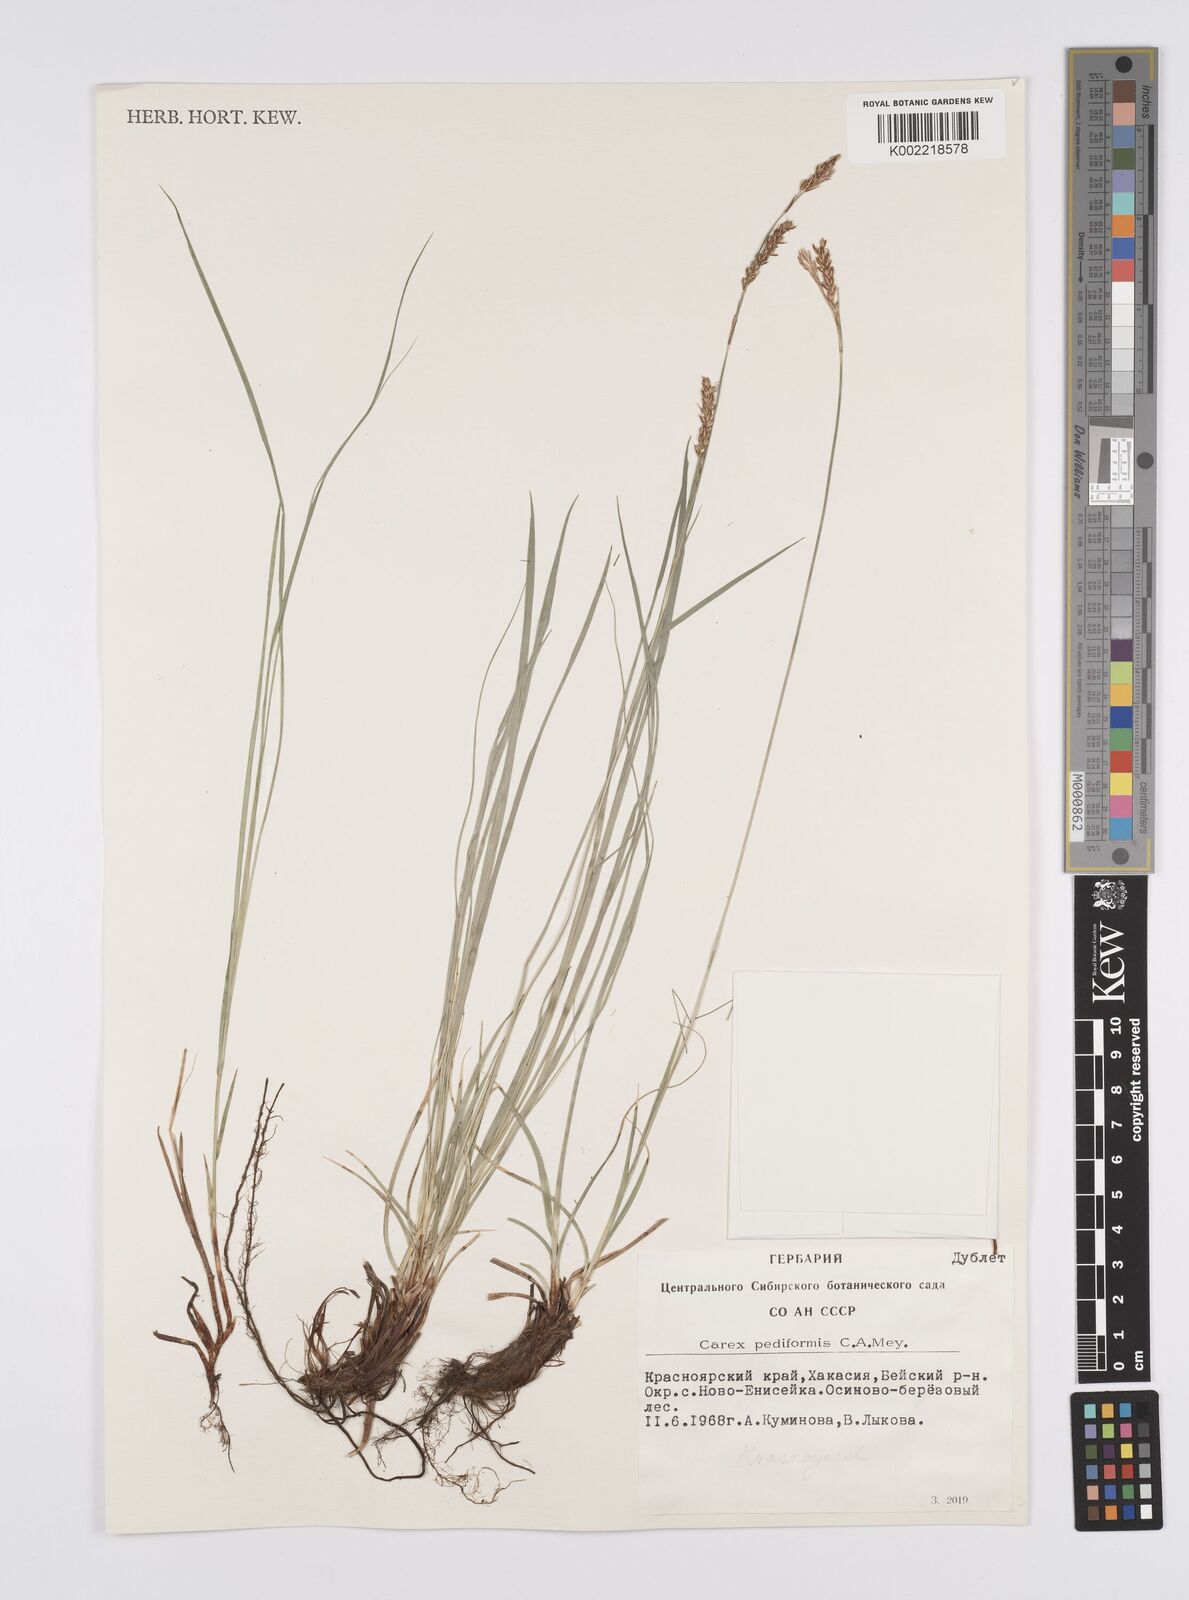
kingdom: Plantae
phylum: Tracheophyta
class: Liliopsida
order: Poales
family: Cyperaceae
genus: Carex
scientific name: Carex pediformis
